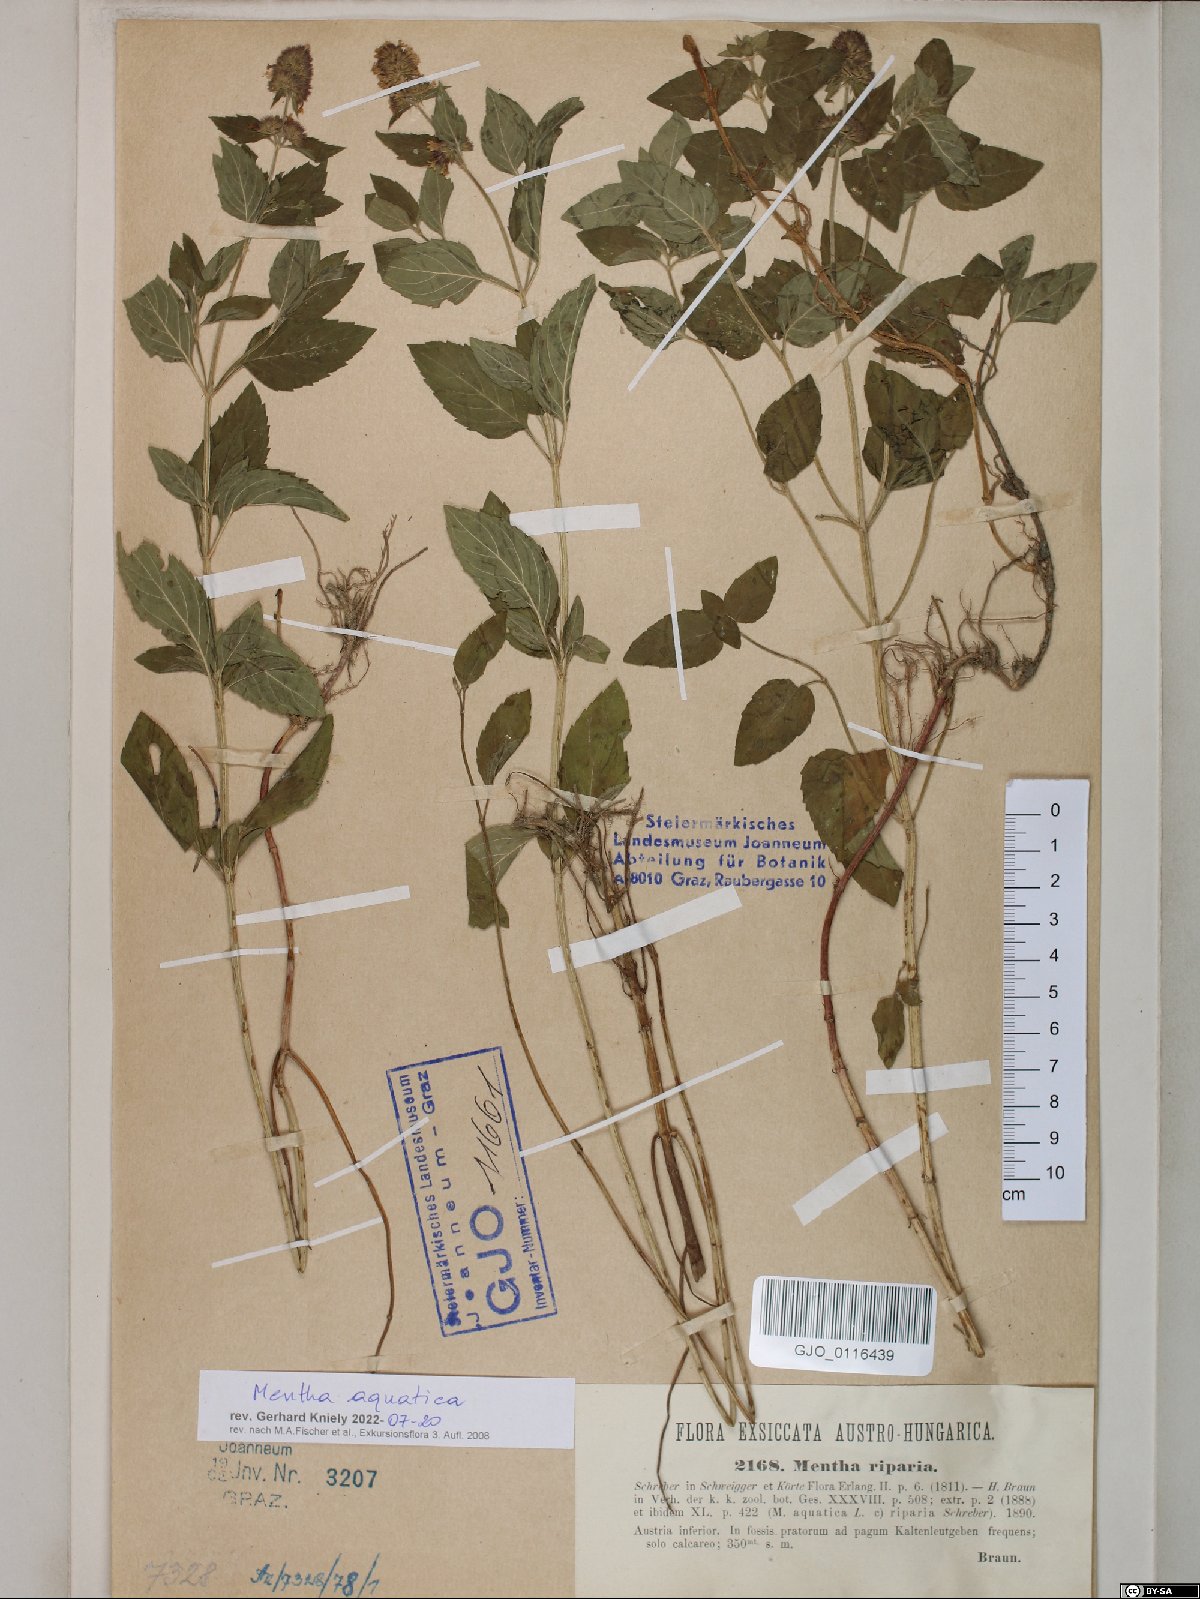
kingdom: Plantae
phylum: Tracheophyta
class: Magnoliopsida
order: Lamiales
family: Lamiaceae
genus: Mentha
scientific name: Mentha aquatica
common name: Water mint
